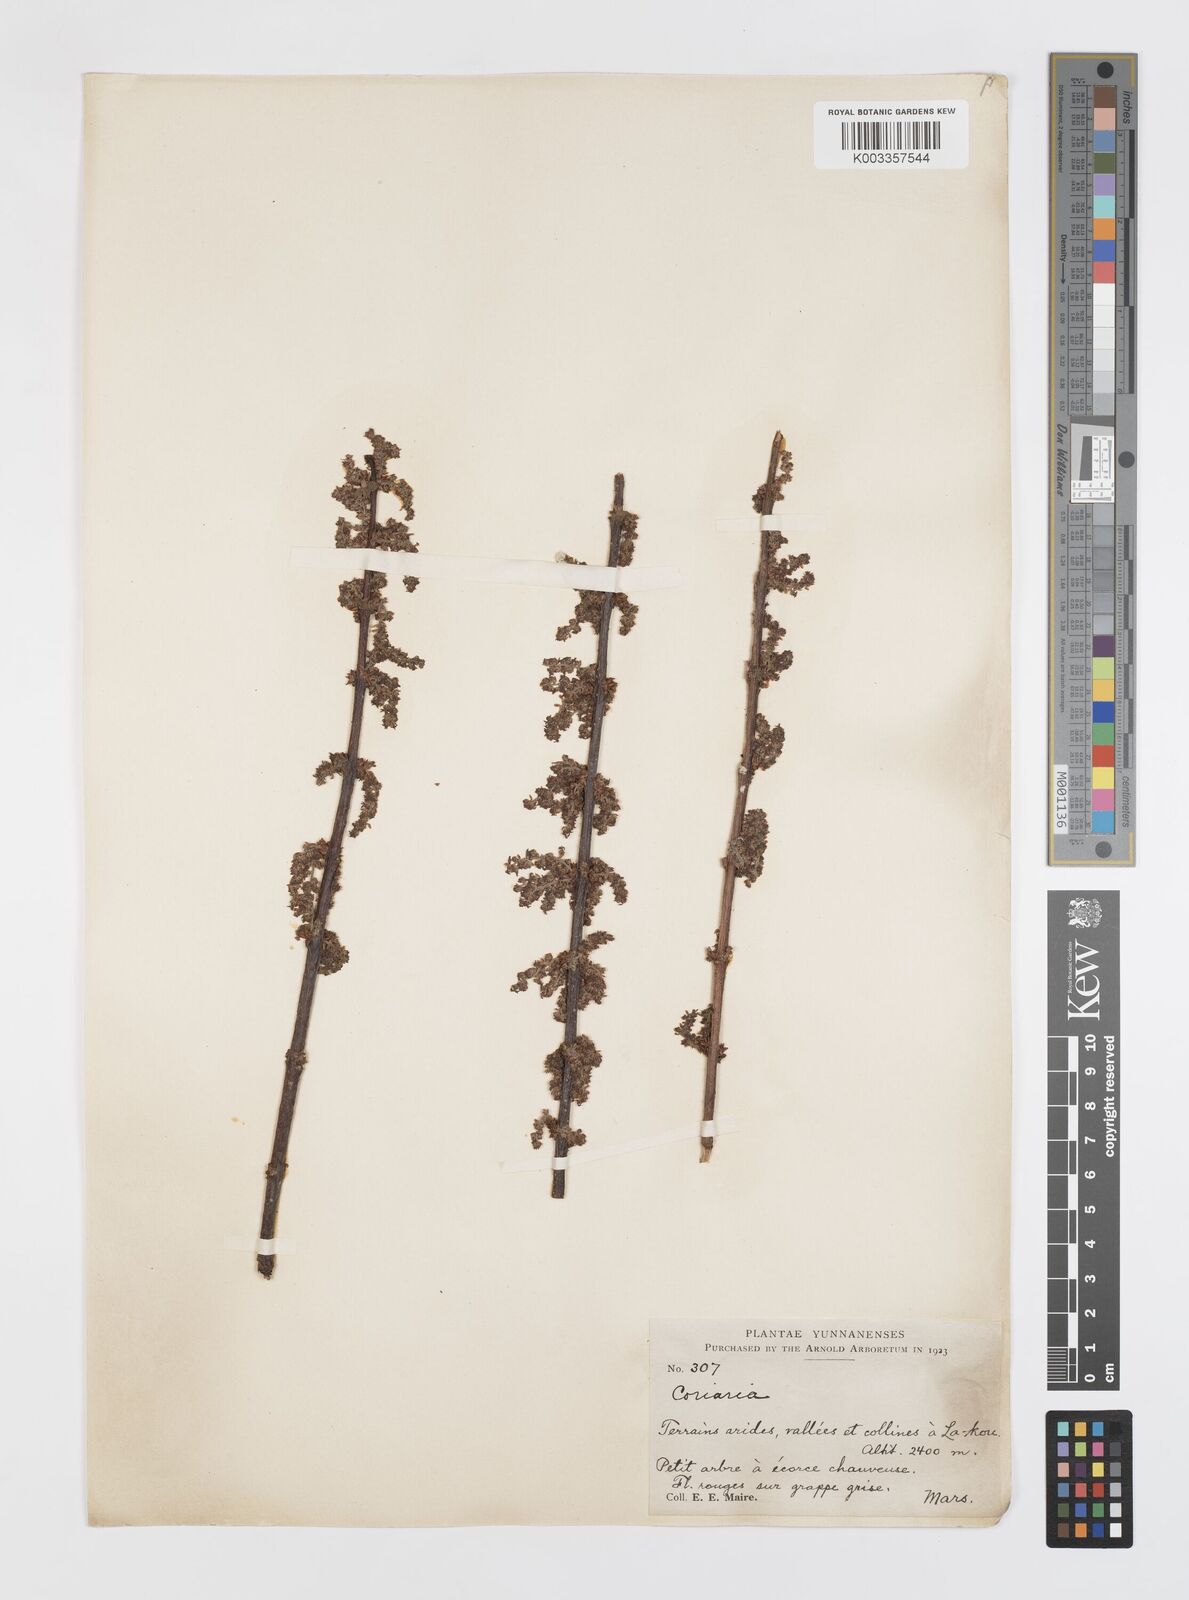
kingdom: Plantae
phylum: Tracheophyta
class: Magnoliopsida
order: Cucurbitales
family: Coriariaceae
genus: Coriaria
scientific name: Coriaria napalensis
